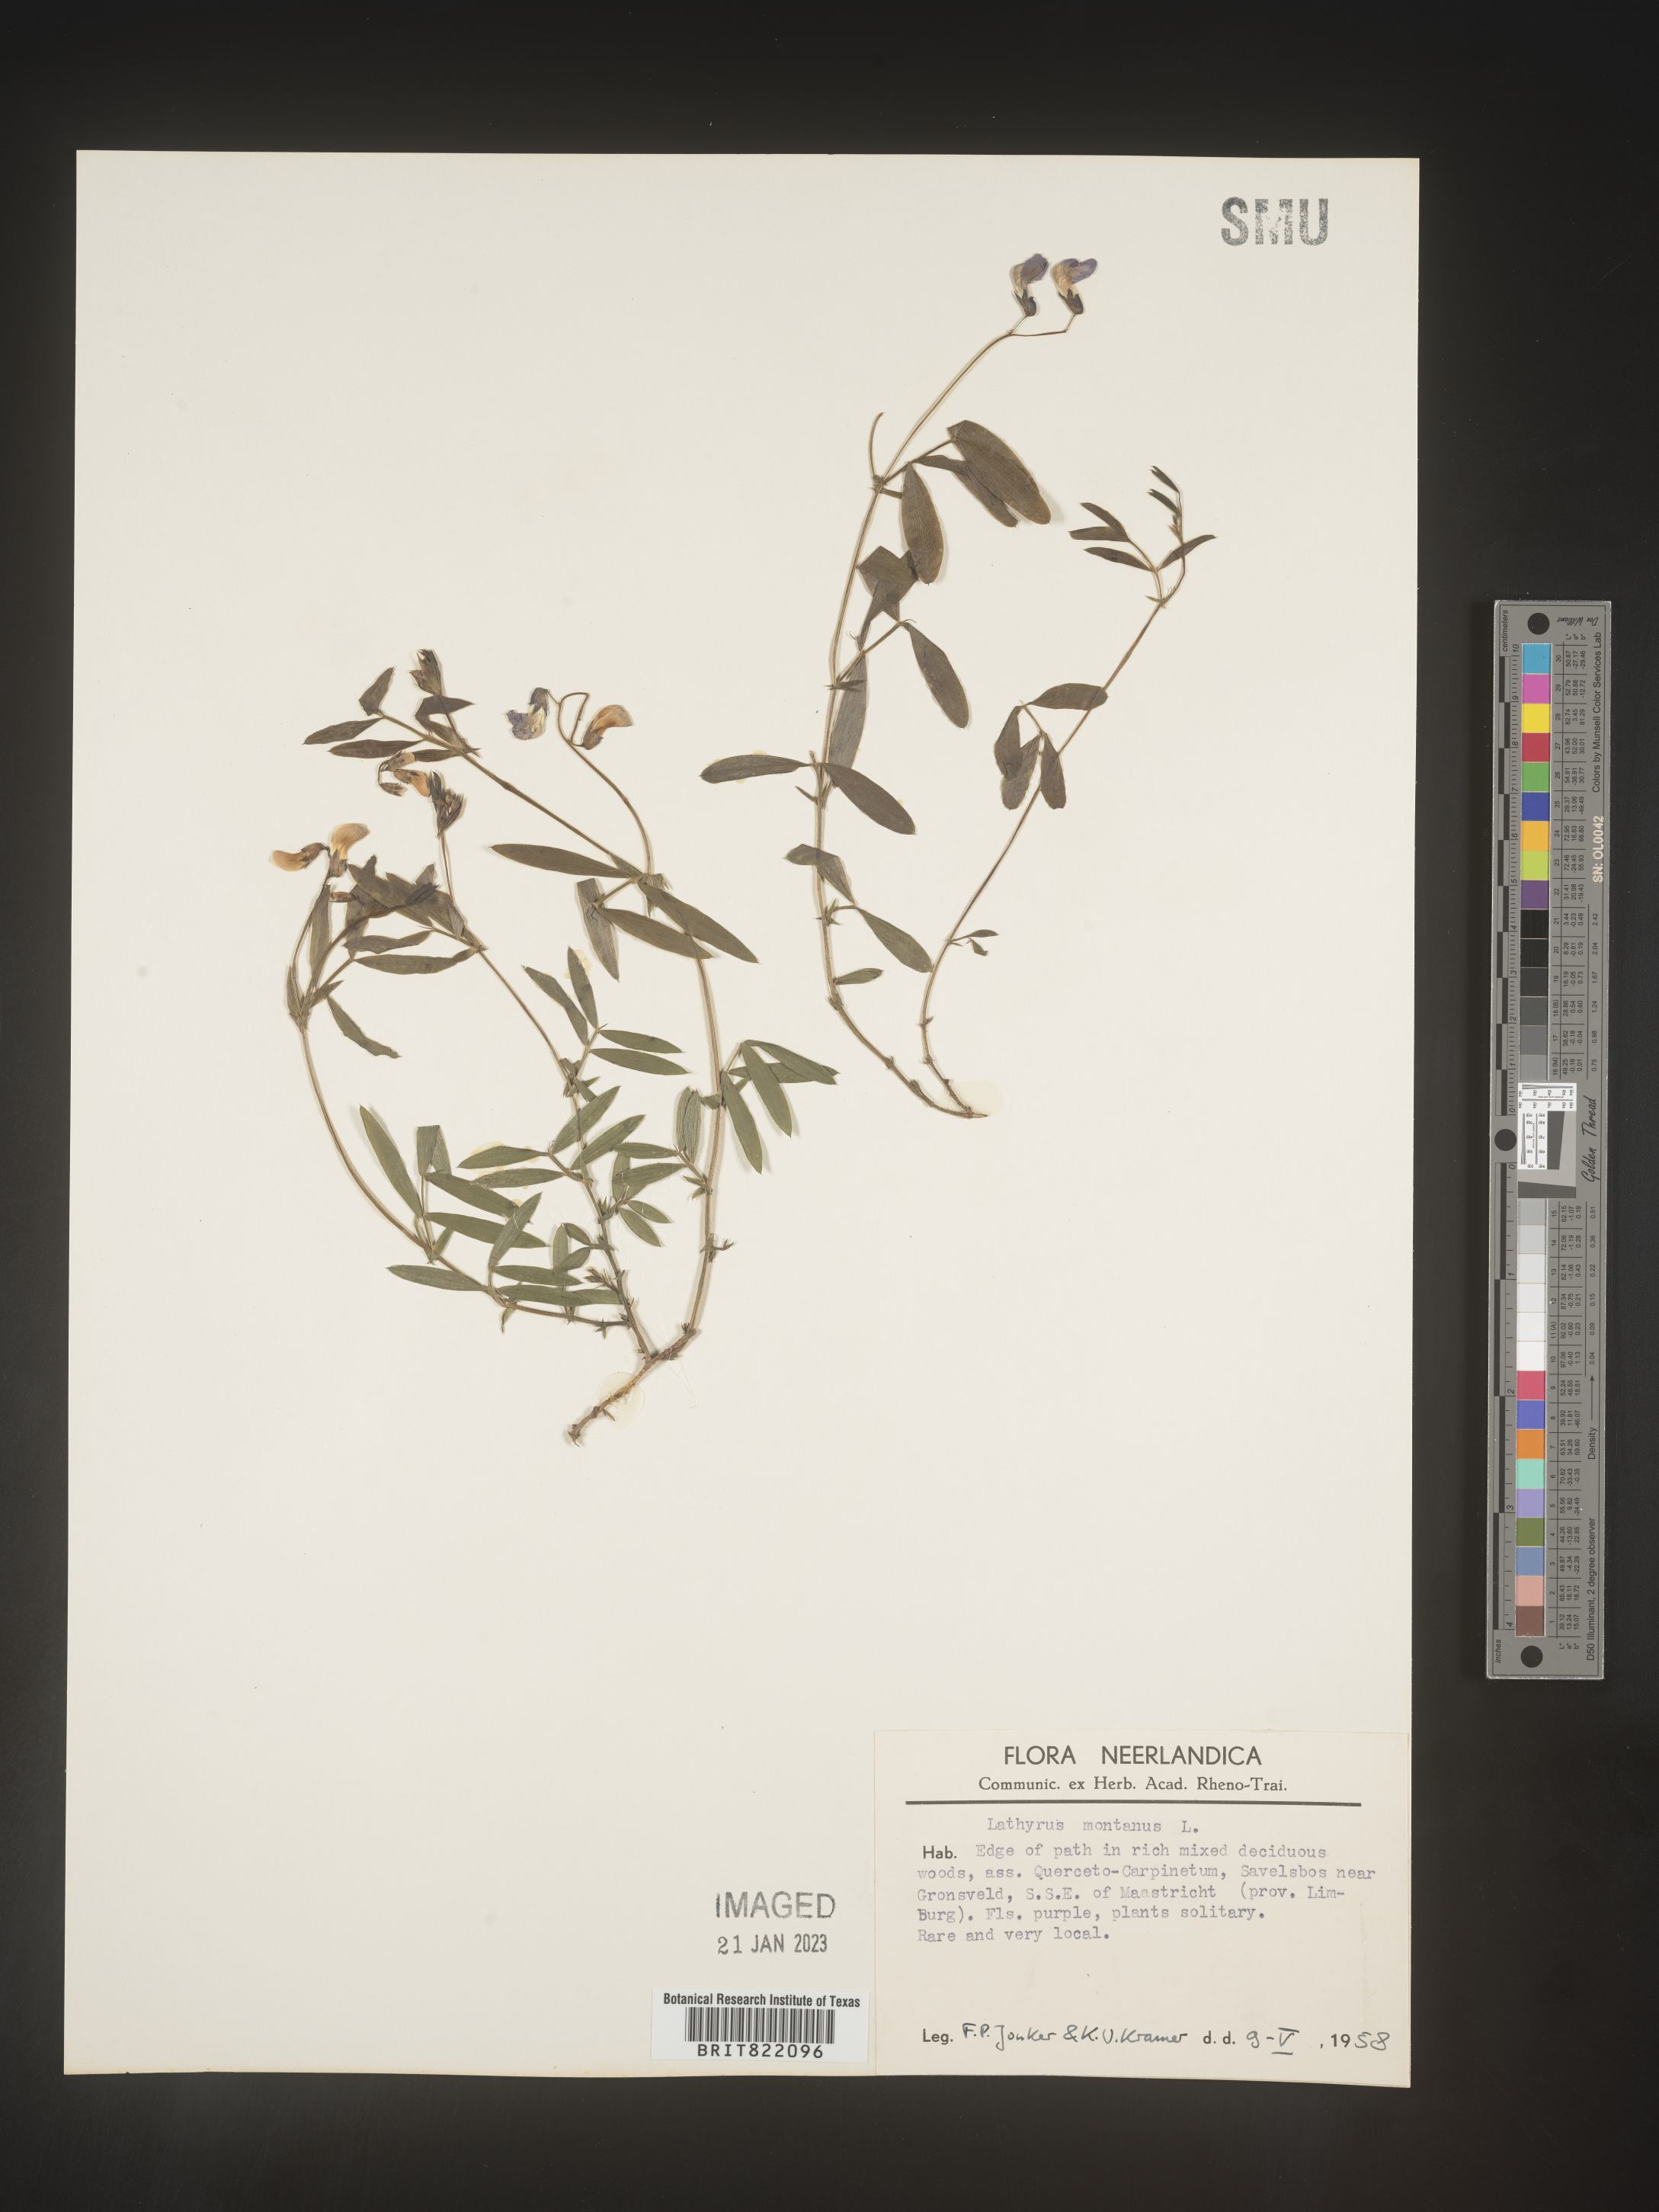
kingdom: Plantae
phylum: Tracheophyta
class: Magnoliopsida
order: Fabales
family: Fabaceae
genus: Lathyrus
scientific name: Lathyrus
